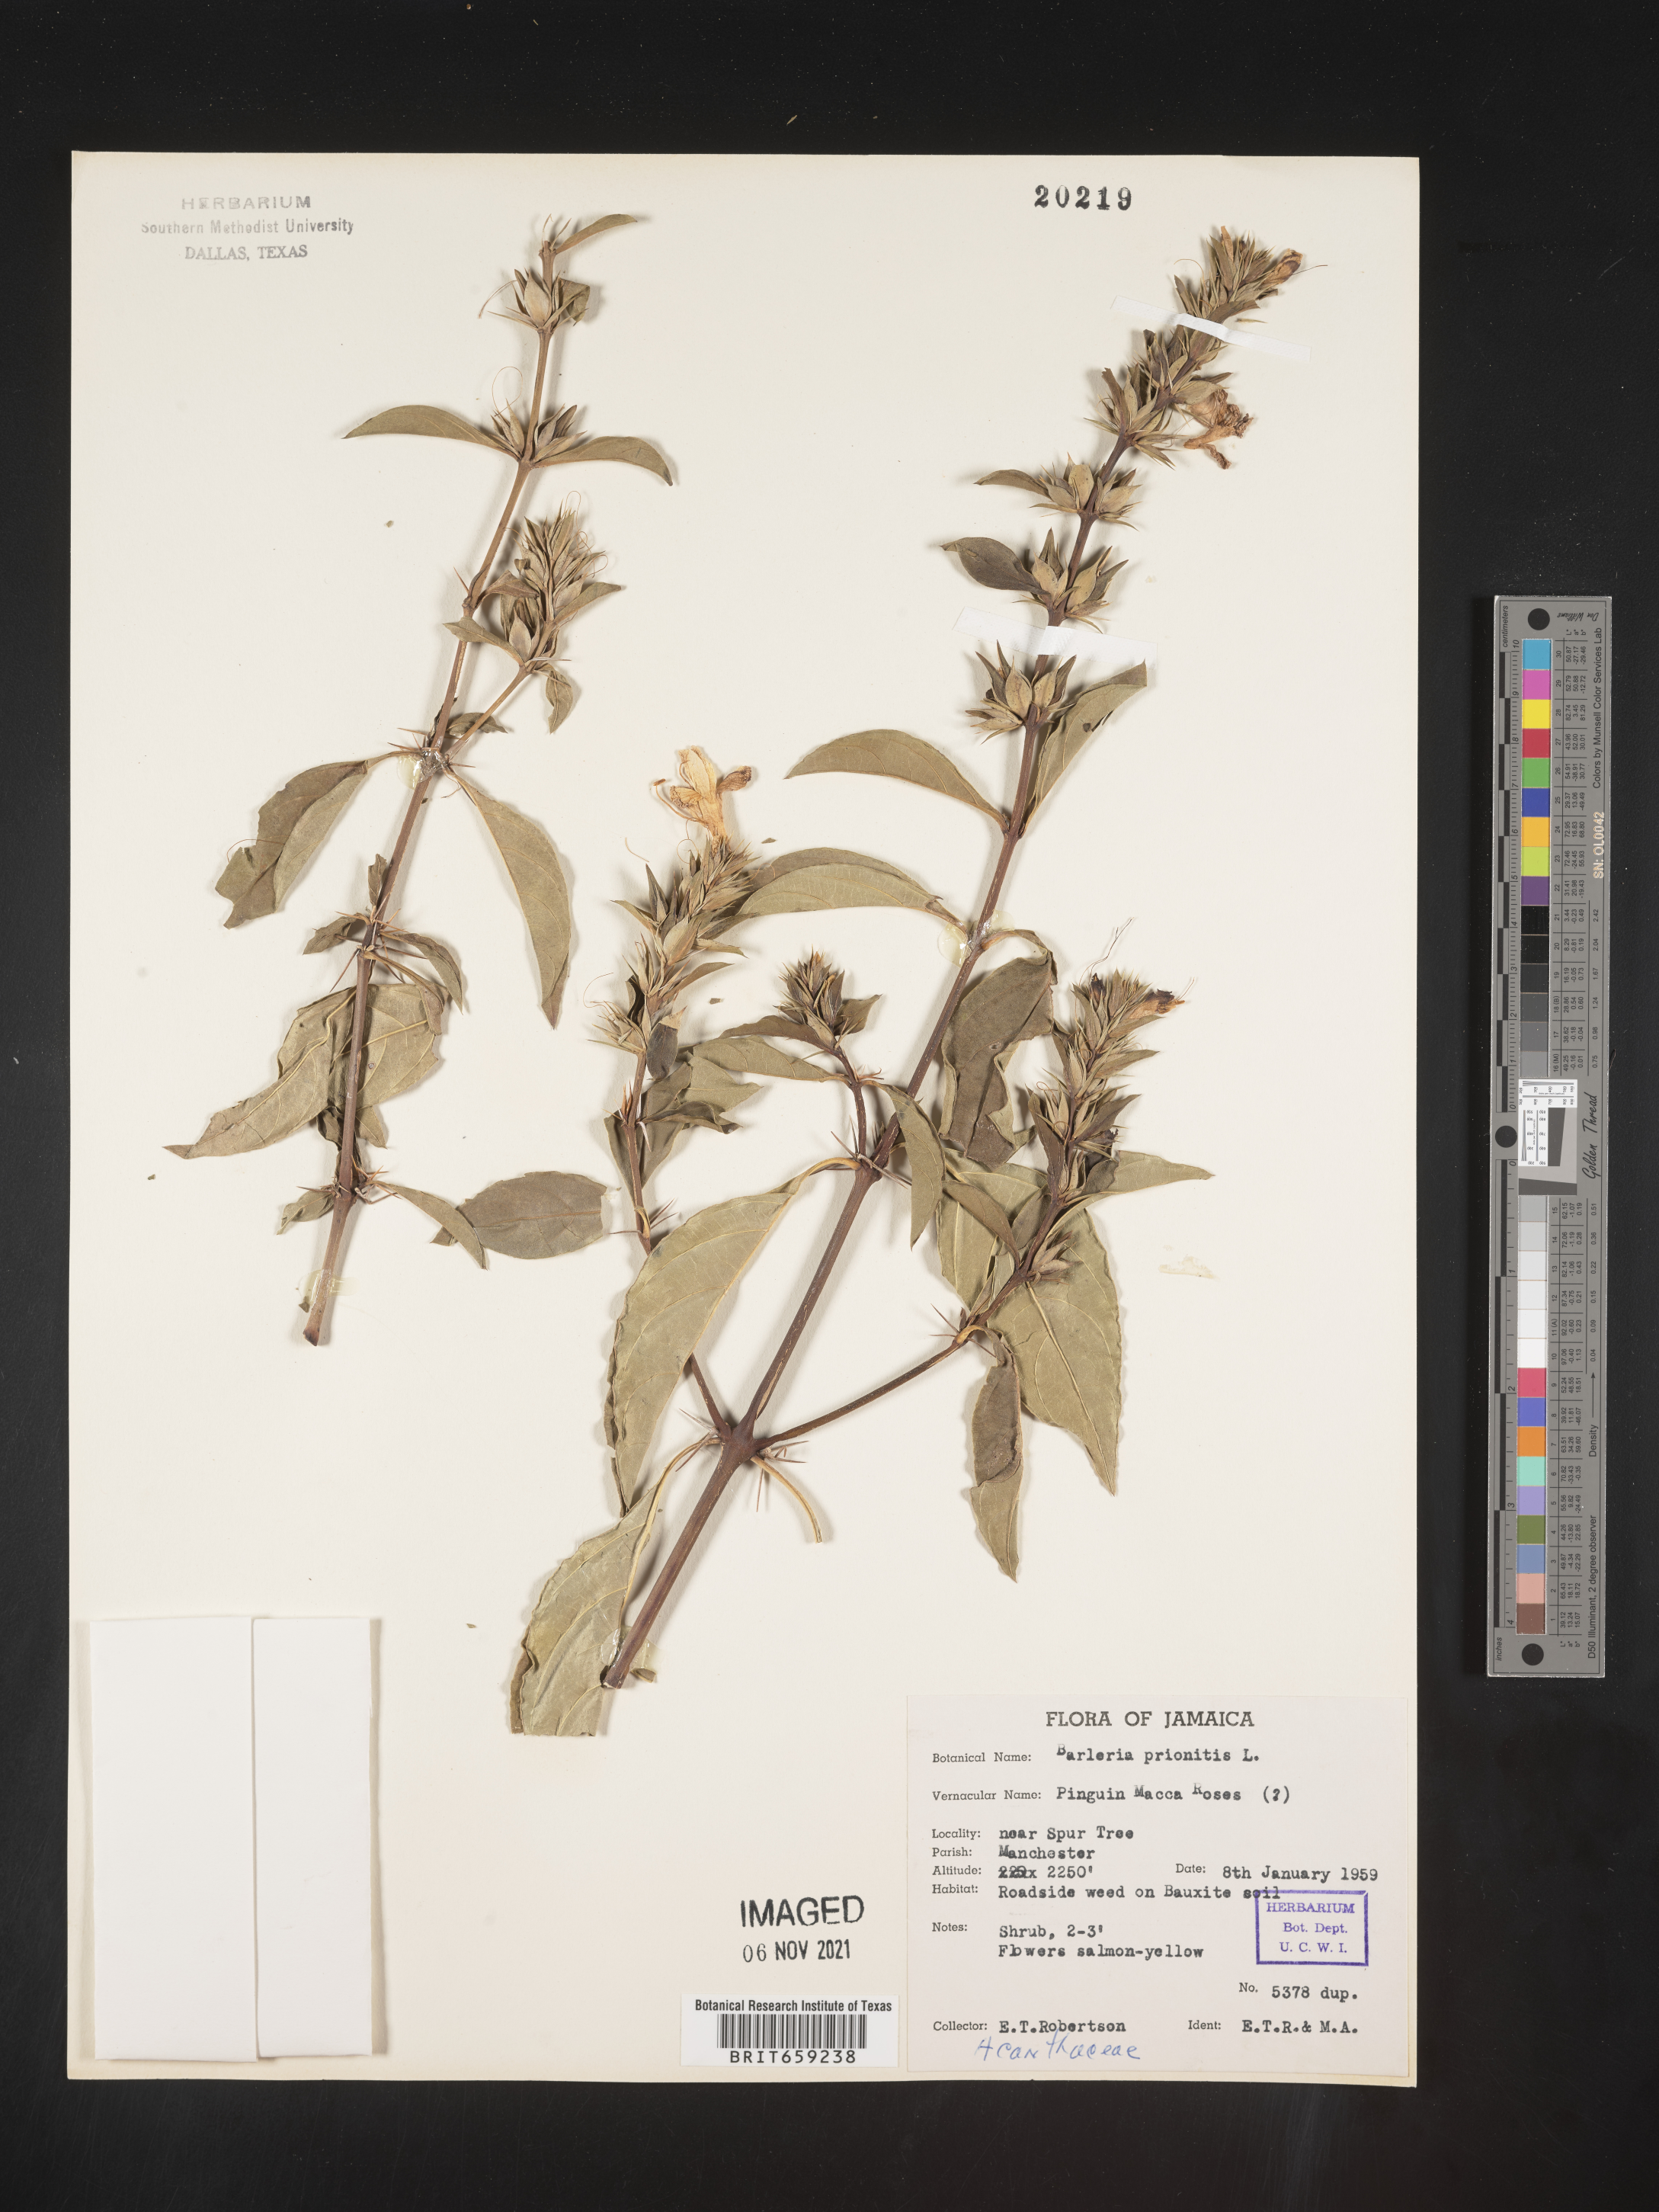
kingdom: Plantae
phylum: Tracheophyta
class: Magnoliopsida
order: Lamiales
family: Acanthaceae
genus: Barleria
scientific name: Barleria
